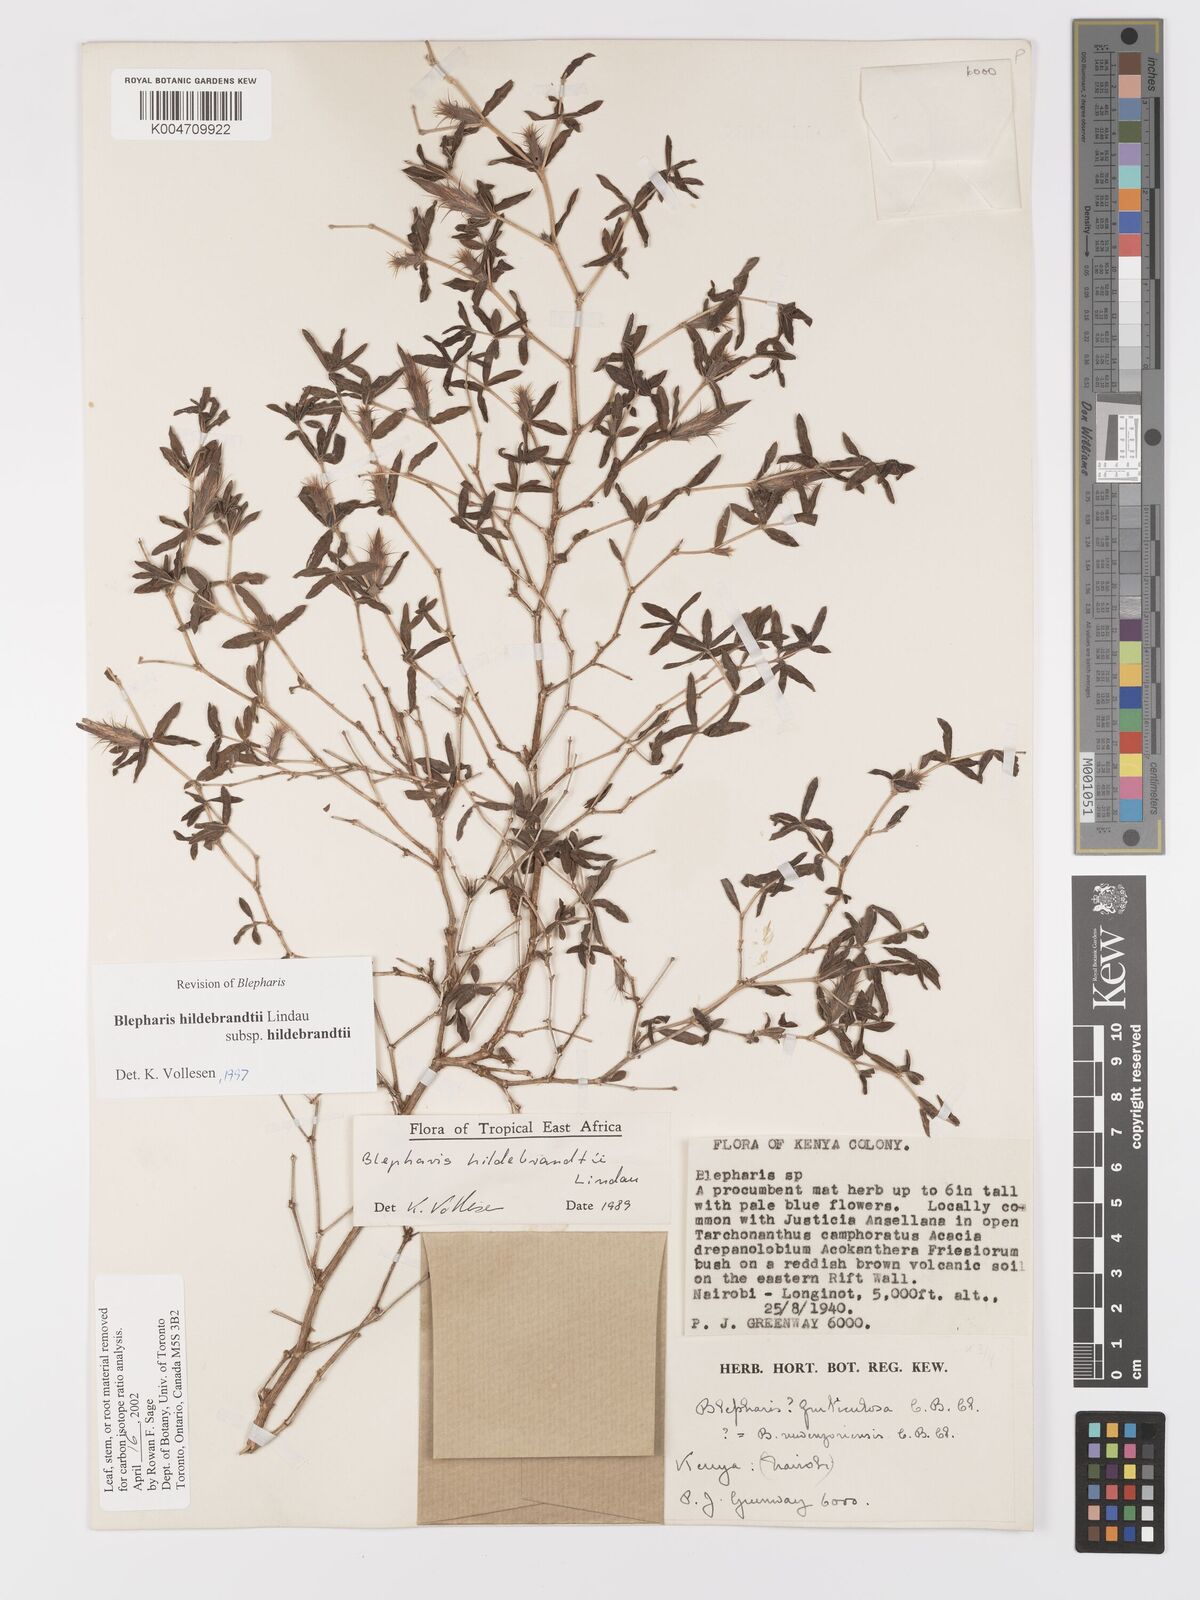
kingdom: Plantae
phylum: Tracheophyta
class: Magnoliopsida
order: Lamiales
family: Acanthaceae
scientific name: Acanthaceae
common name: Acanthaceae
